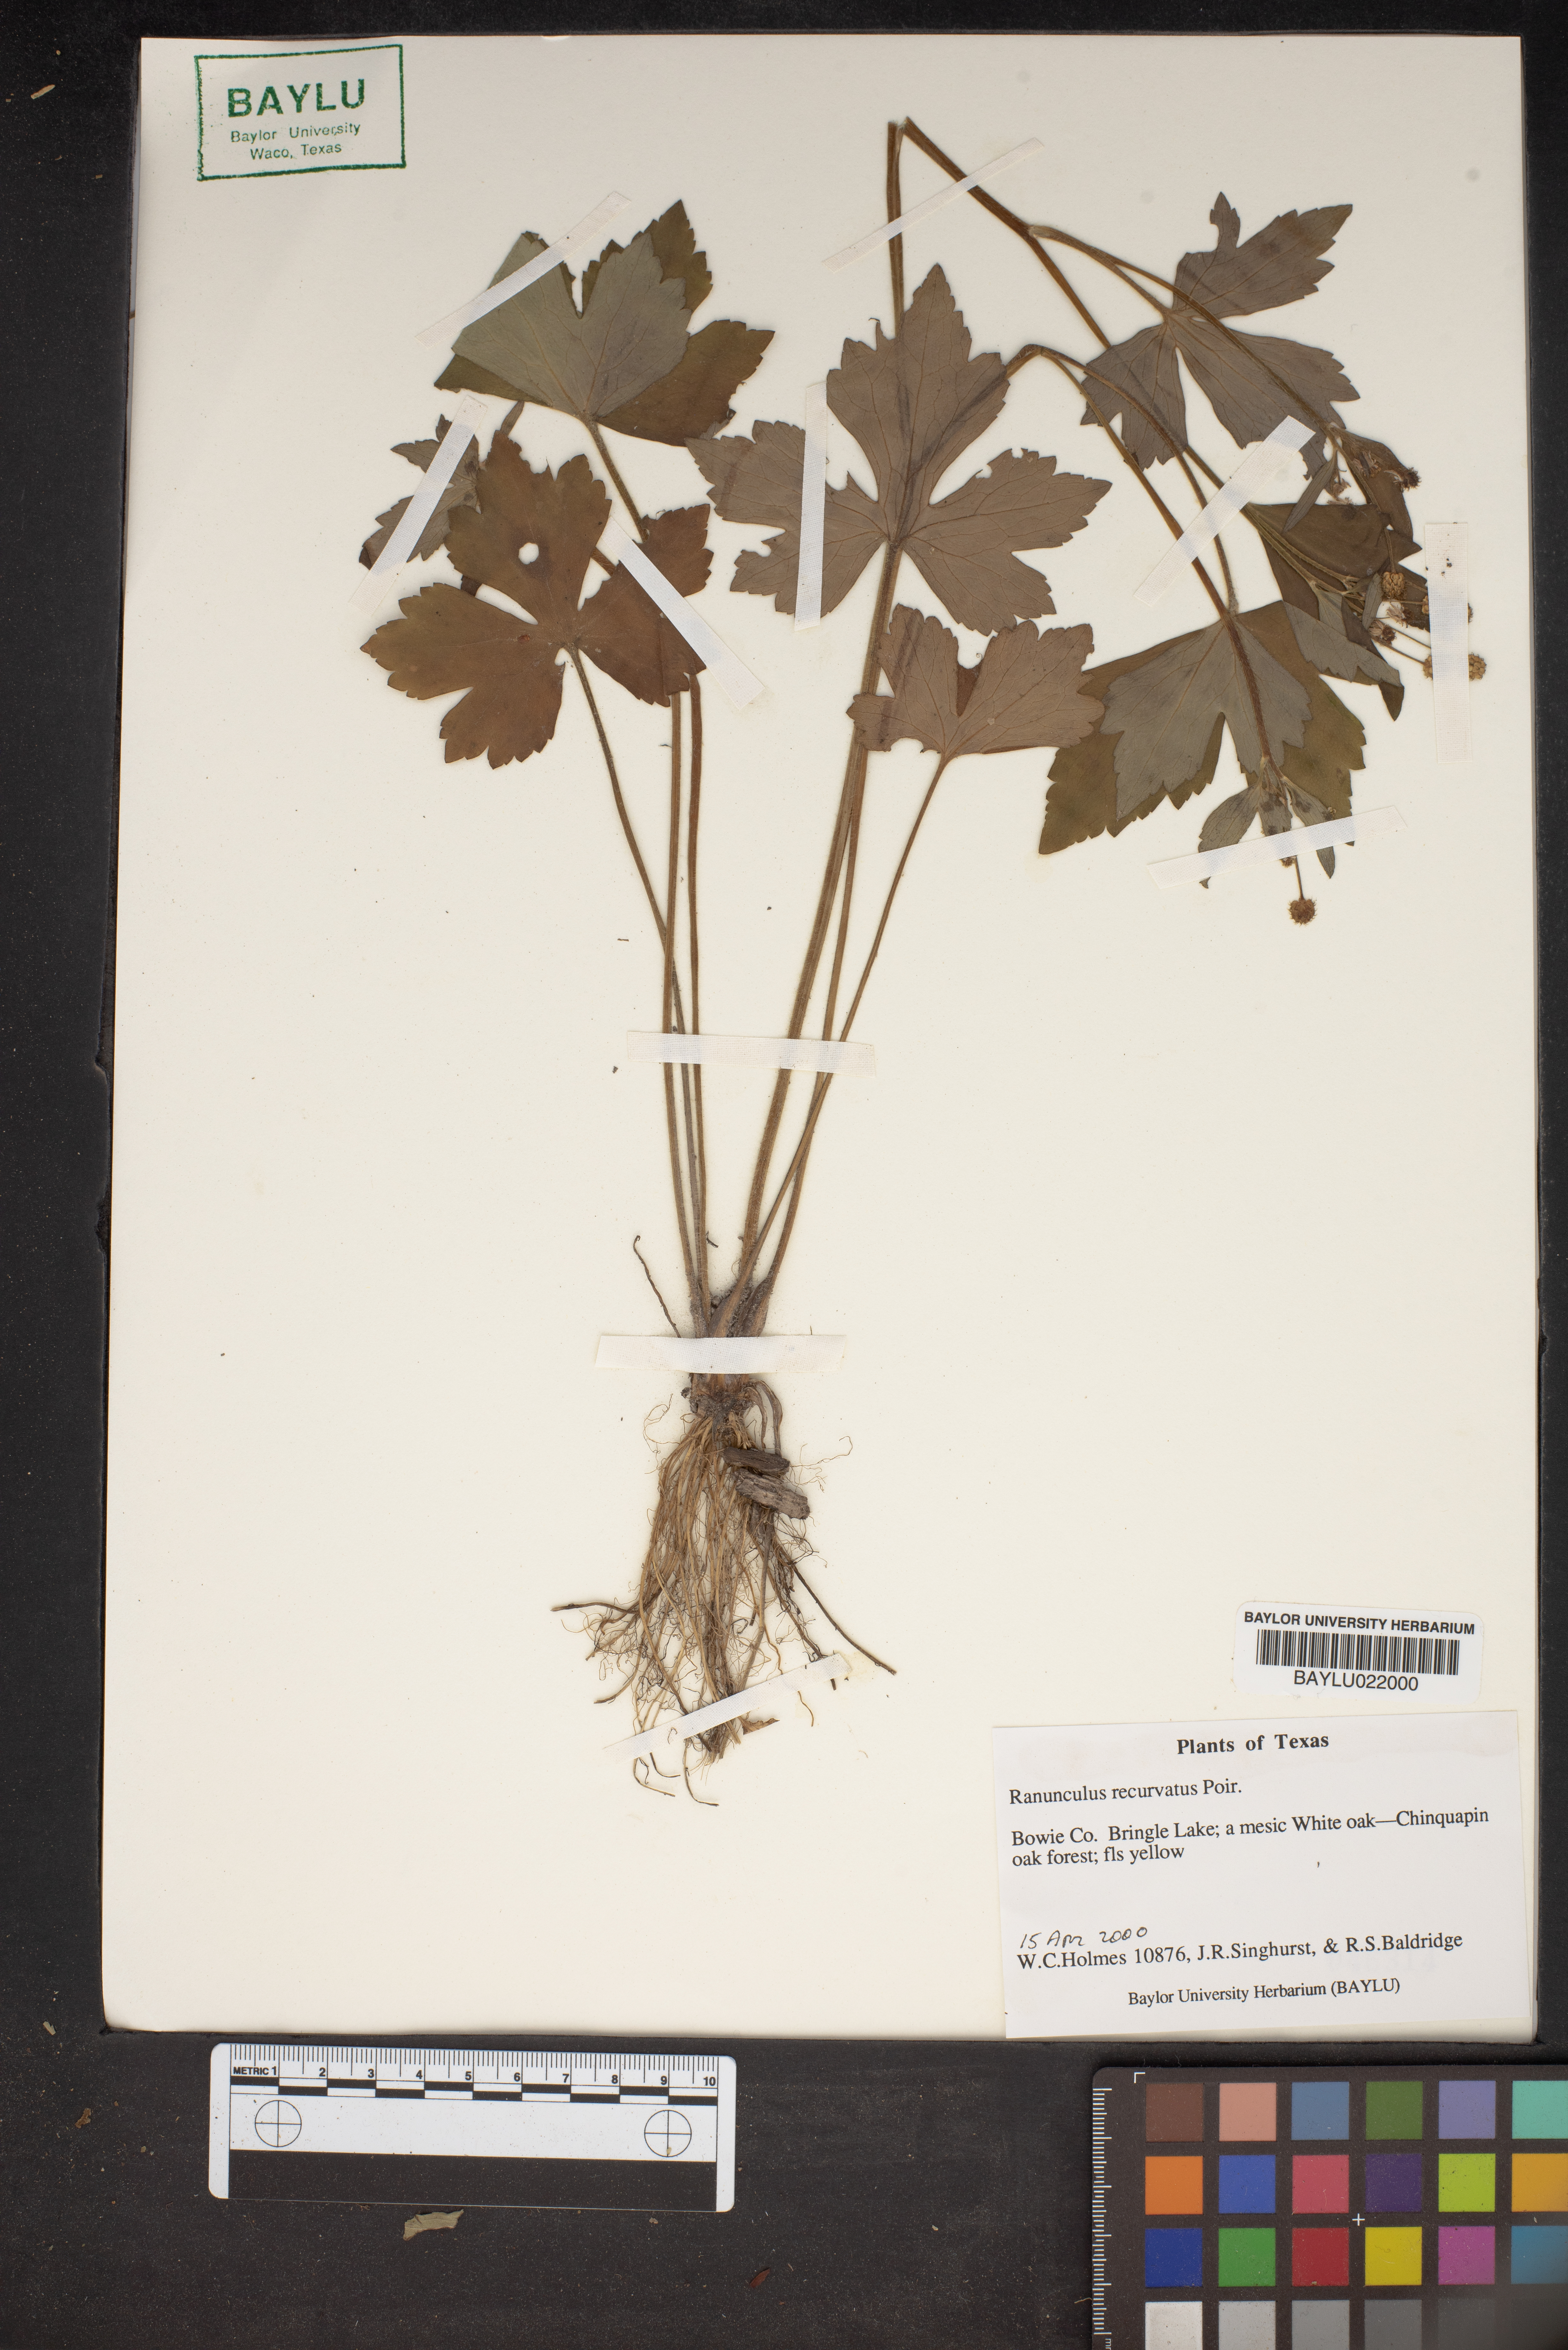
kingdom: Plantae
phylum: Tracheophyta
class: Magnoliopsida
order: Ranunculales
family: Ranunculaceae
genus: Ranunculus
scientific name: Ranunculus recurvatus
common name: Blisterwort
